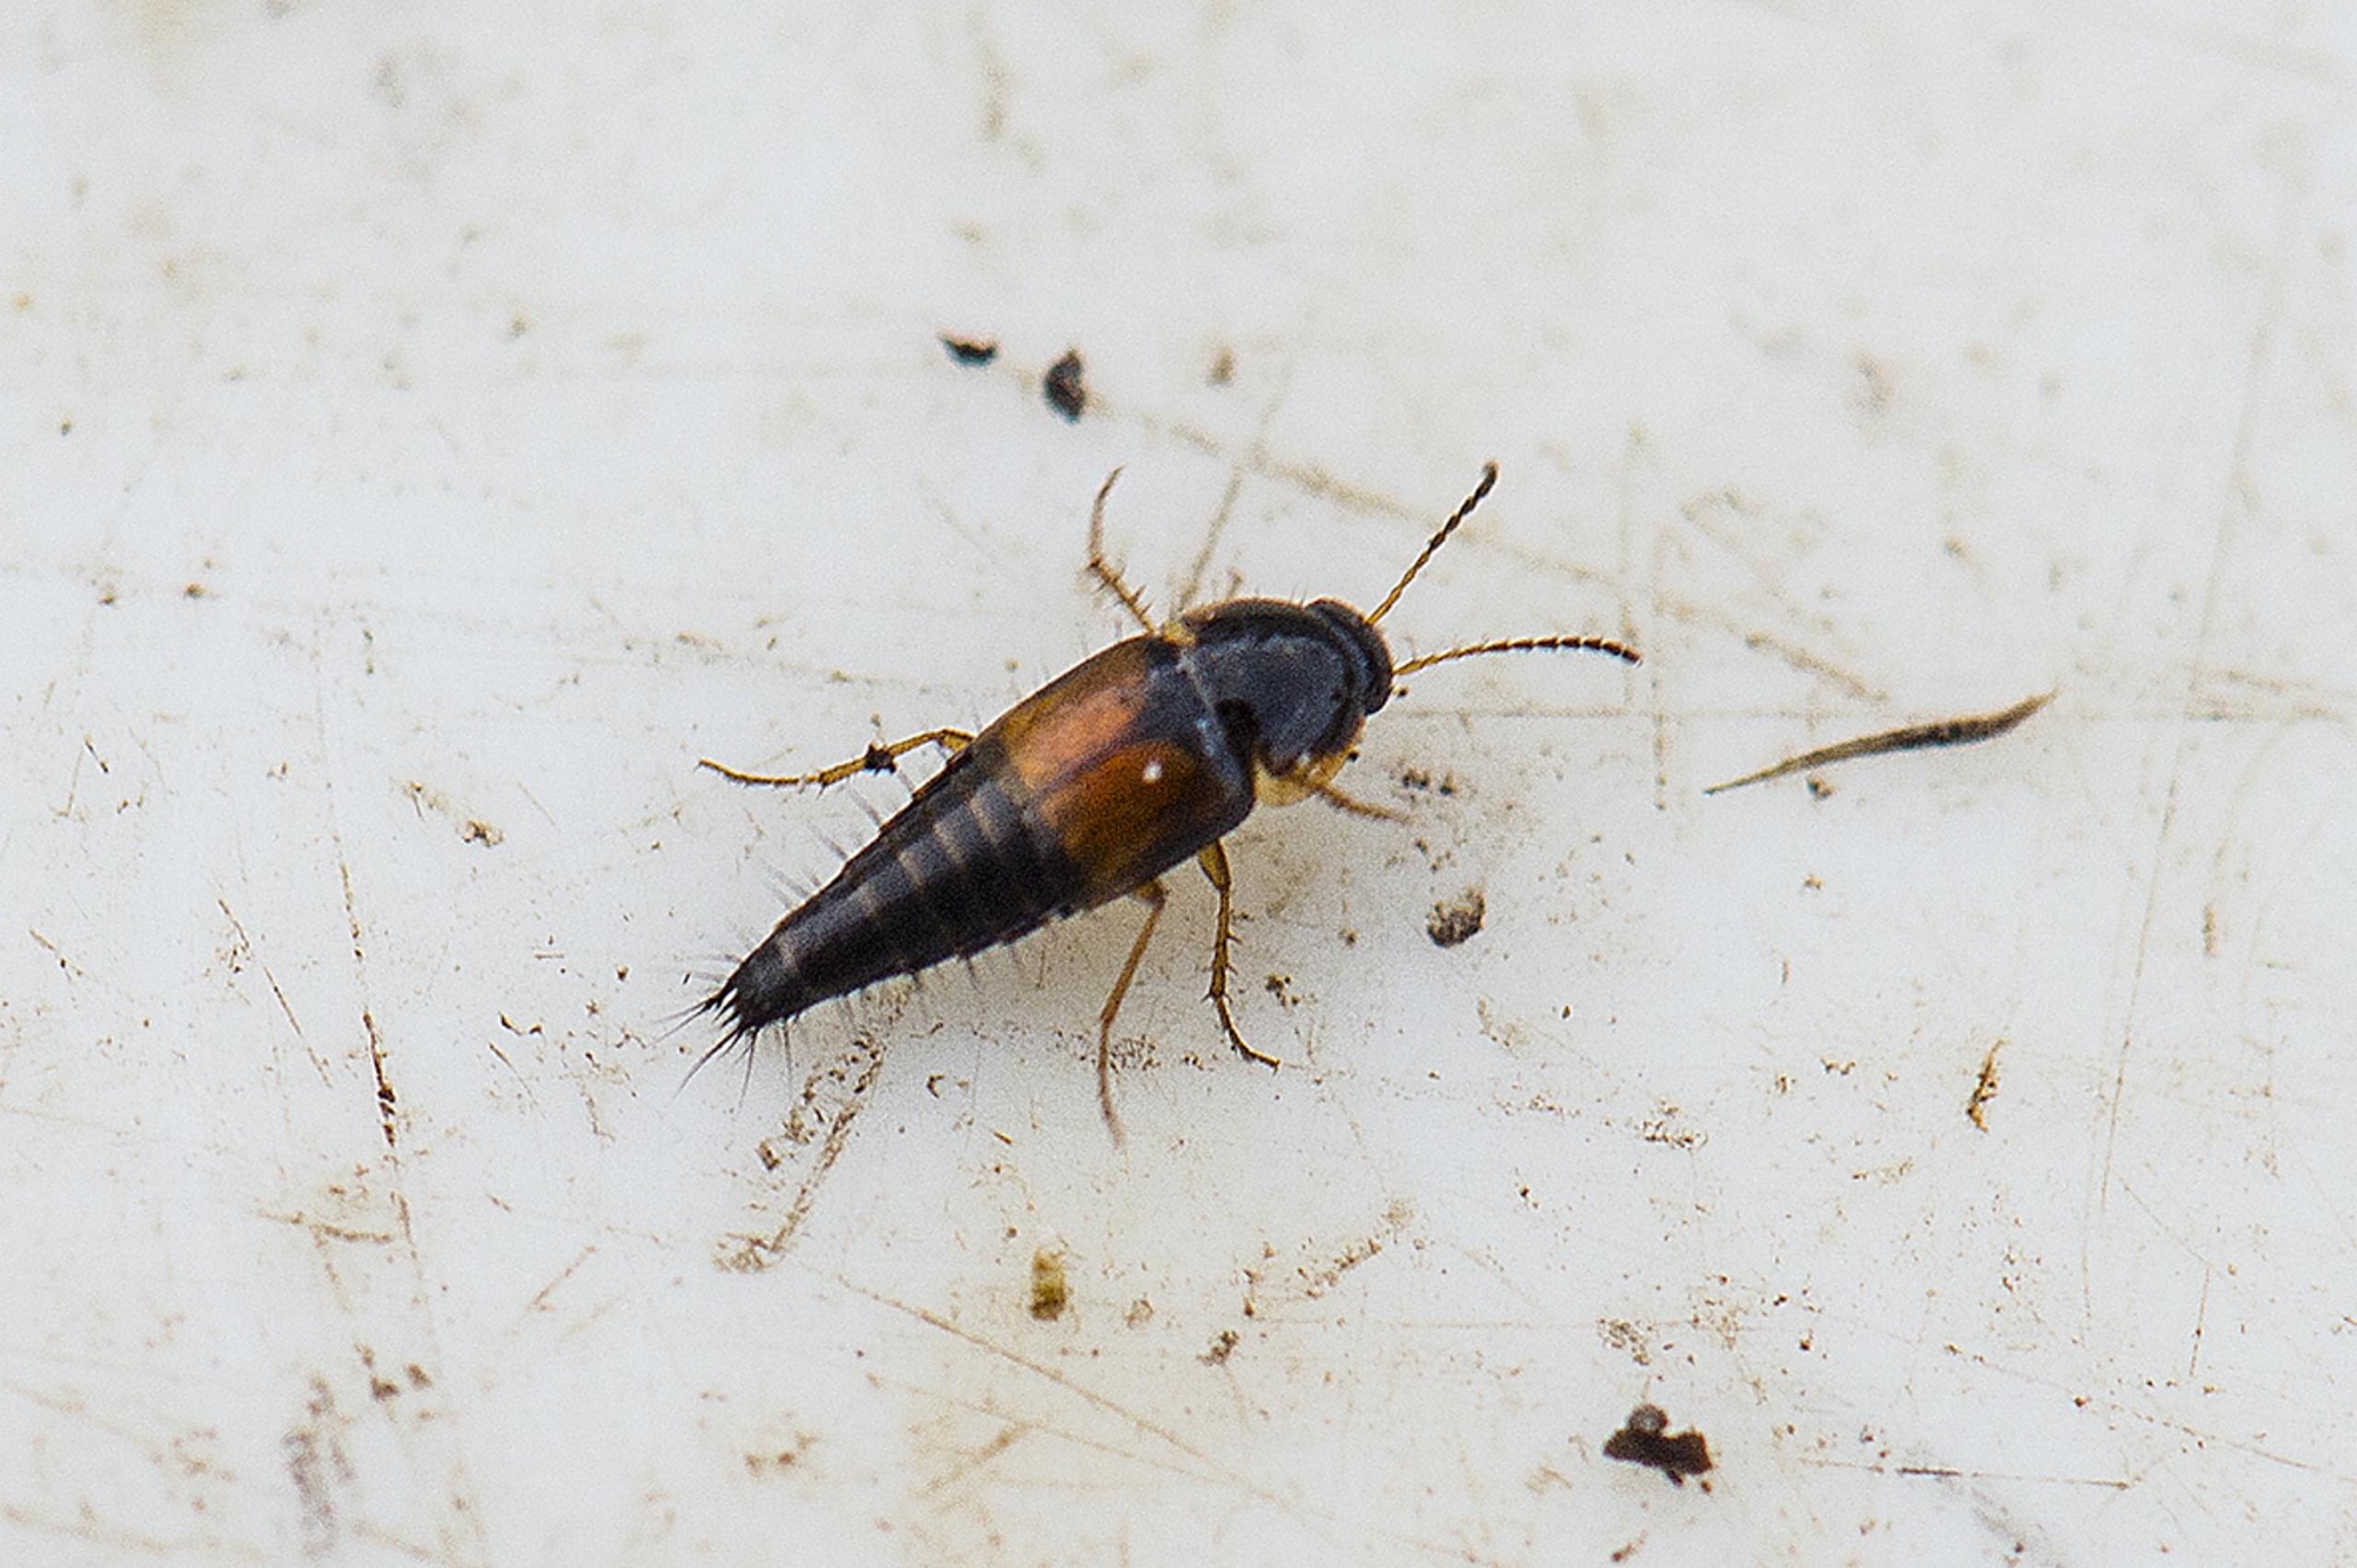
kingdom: Animalia
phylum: Arthropoda
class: Insecta
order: Coleoptera
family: Staphylinidae
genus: Tachyporus
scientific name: Tachyporus hypnorum
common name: Sortplettet agerrovbille
